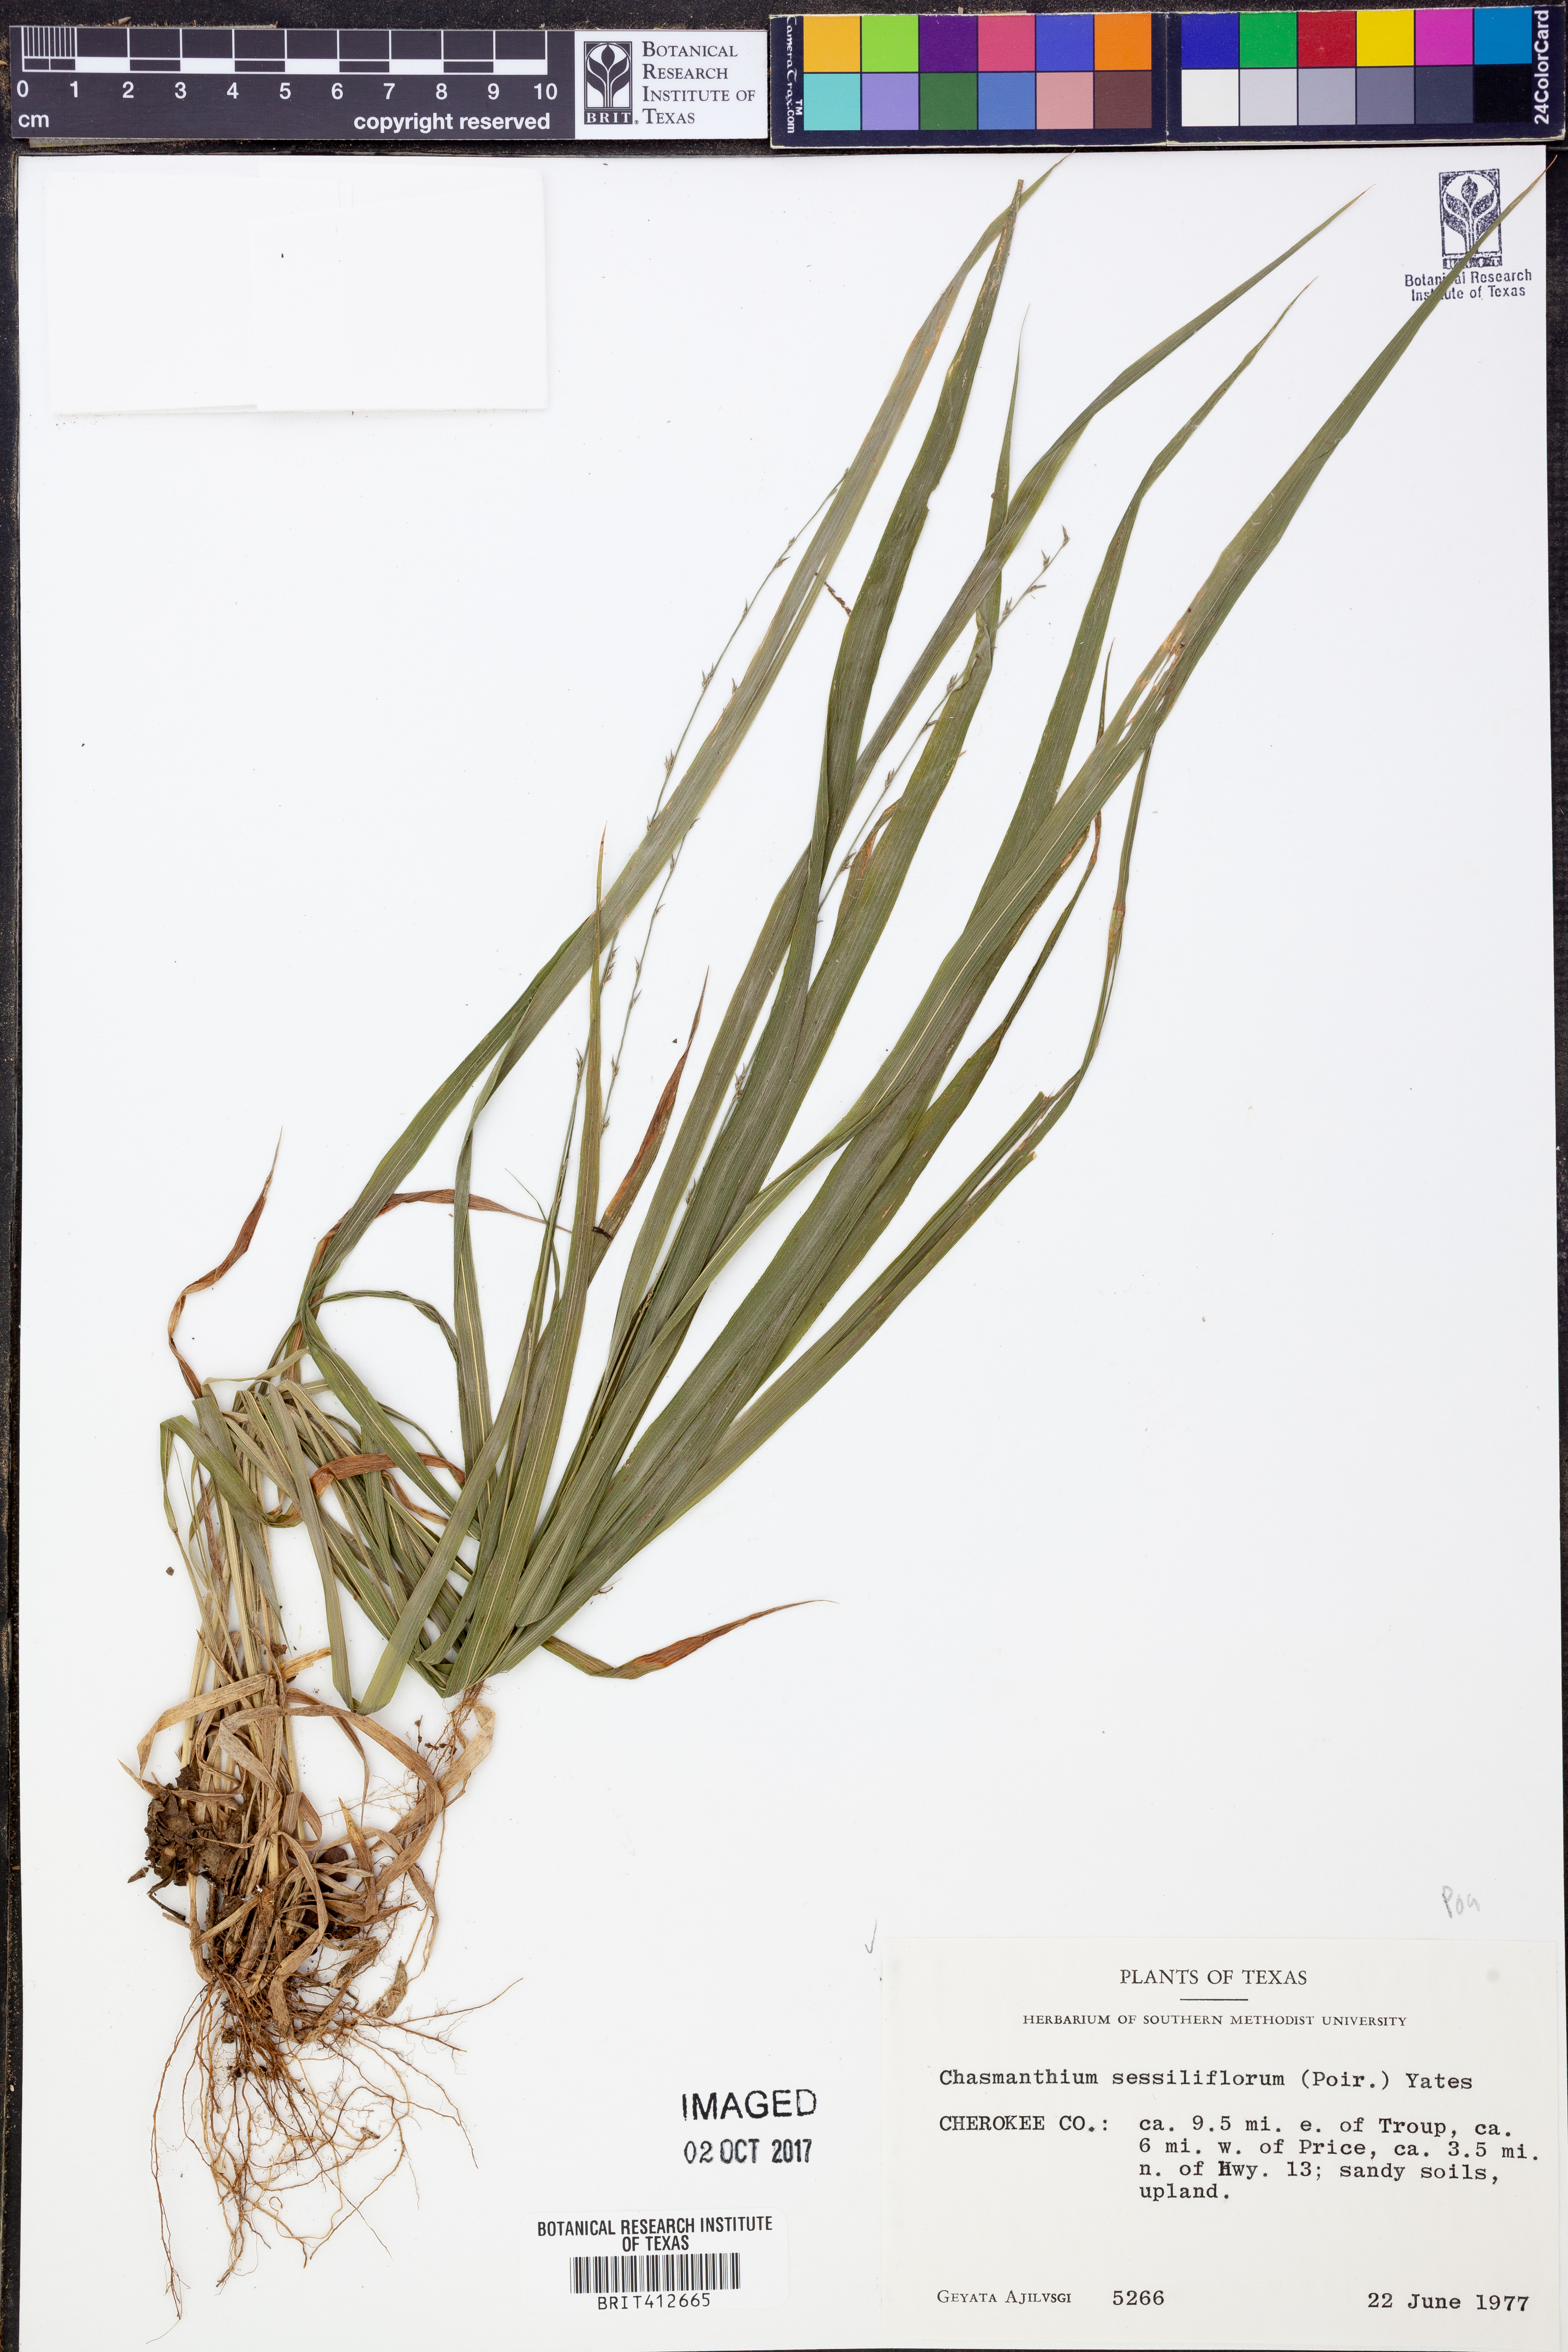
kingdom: Plantae
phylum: Tracheophyta
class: Liliopsida
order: Poales
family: Poaceae
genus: Chasmanthium
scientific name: Chasmanthium laxum
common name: Slender chasmanthium
